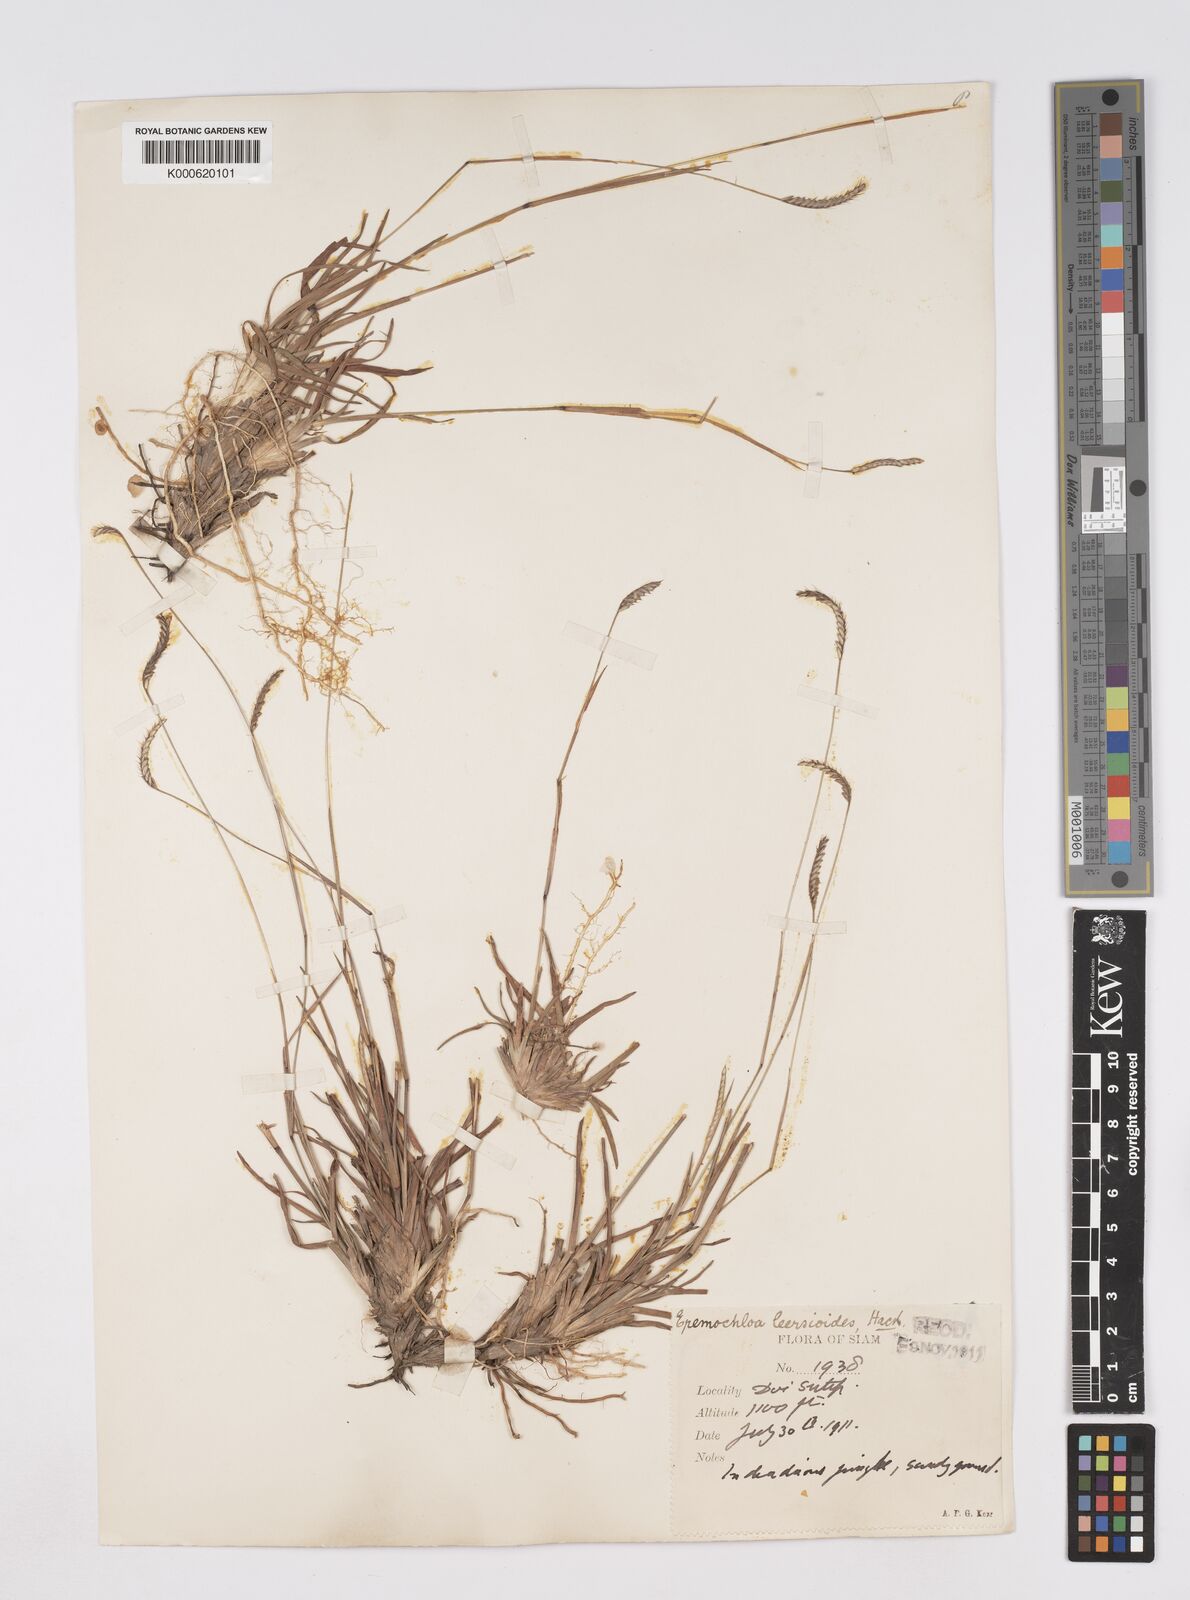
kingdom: Plantae
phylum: Tracheophyta
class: Liliopsida
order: Poales
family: Poaceae
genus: Eremochloa
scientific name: Eremochloa ciliaris
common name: Fringed centipede grass
